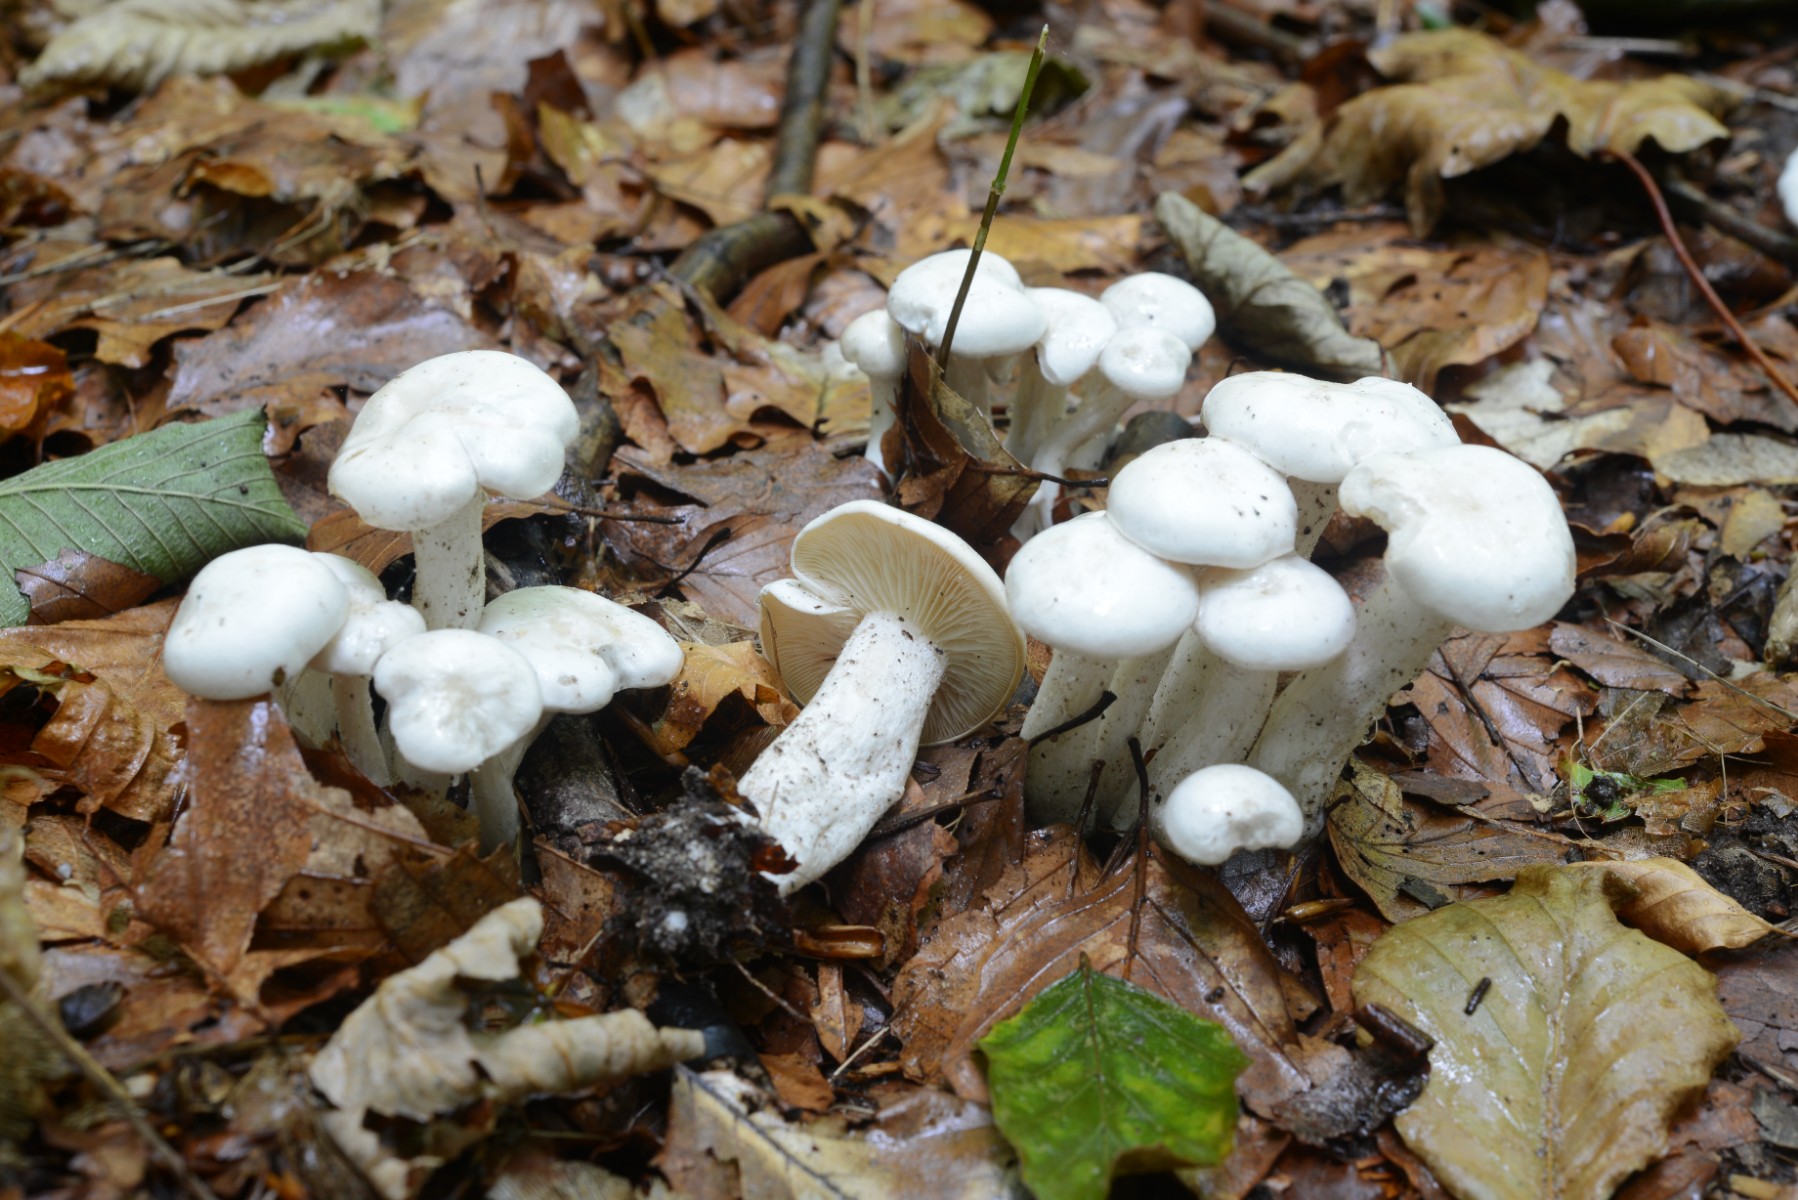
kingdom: Fungi
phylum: Basidiomycota
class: Agaricomycetes
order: Agaricales
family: Tricholomataceae
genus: Leucocybe
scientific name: Leucocybe connata
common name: knippe-tragthat
